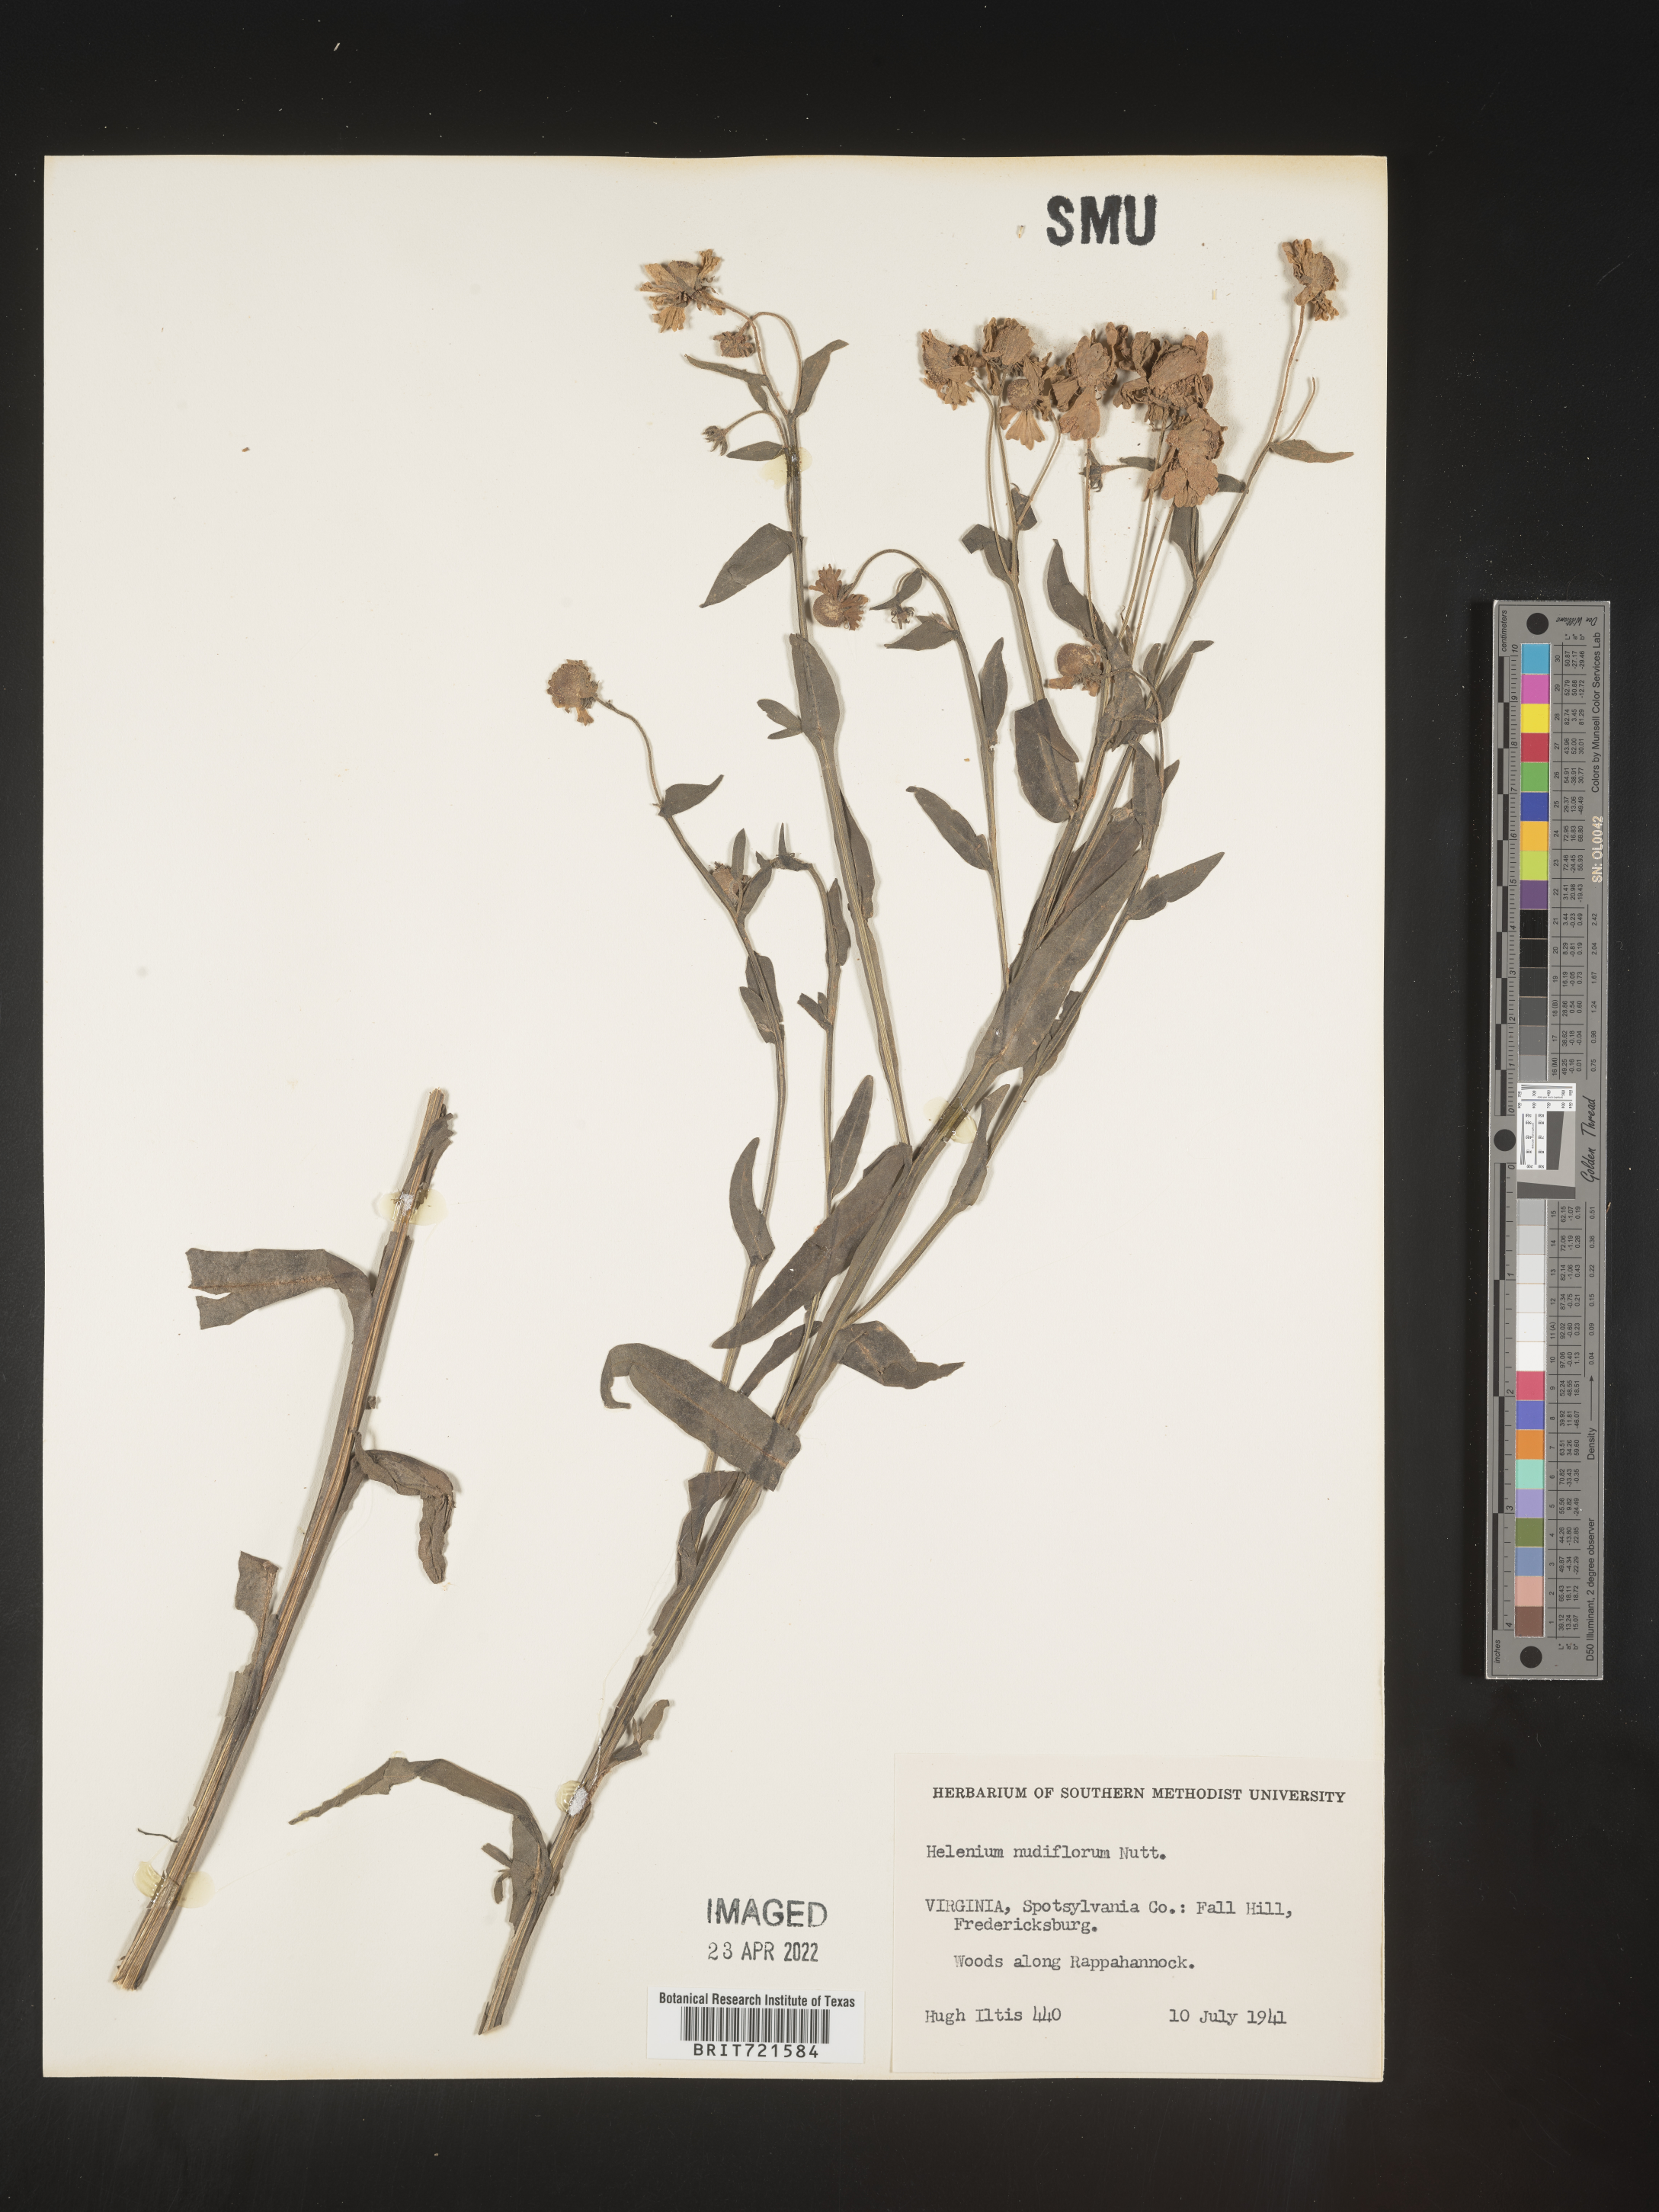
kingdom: Plantae
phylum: Tracheophyta
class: Magnoliopsida
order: Asterales
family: Asteraceae
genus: Helenium
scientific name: Helenium flexuosum
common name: Naked-flowered sneezeweed
